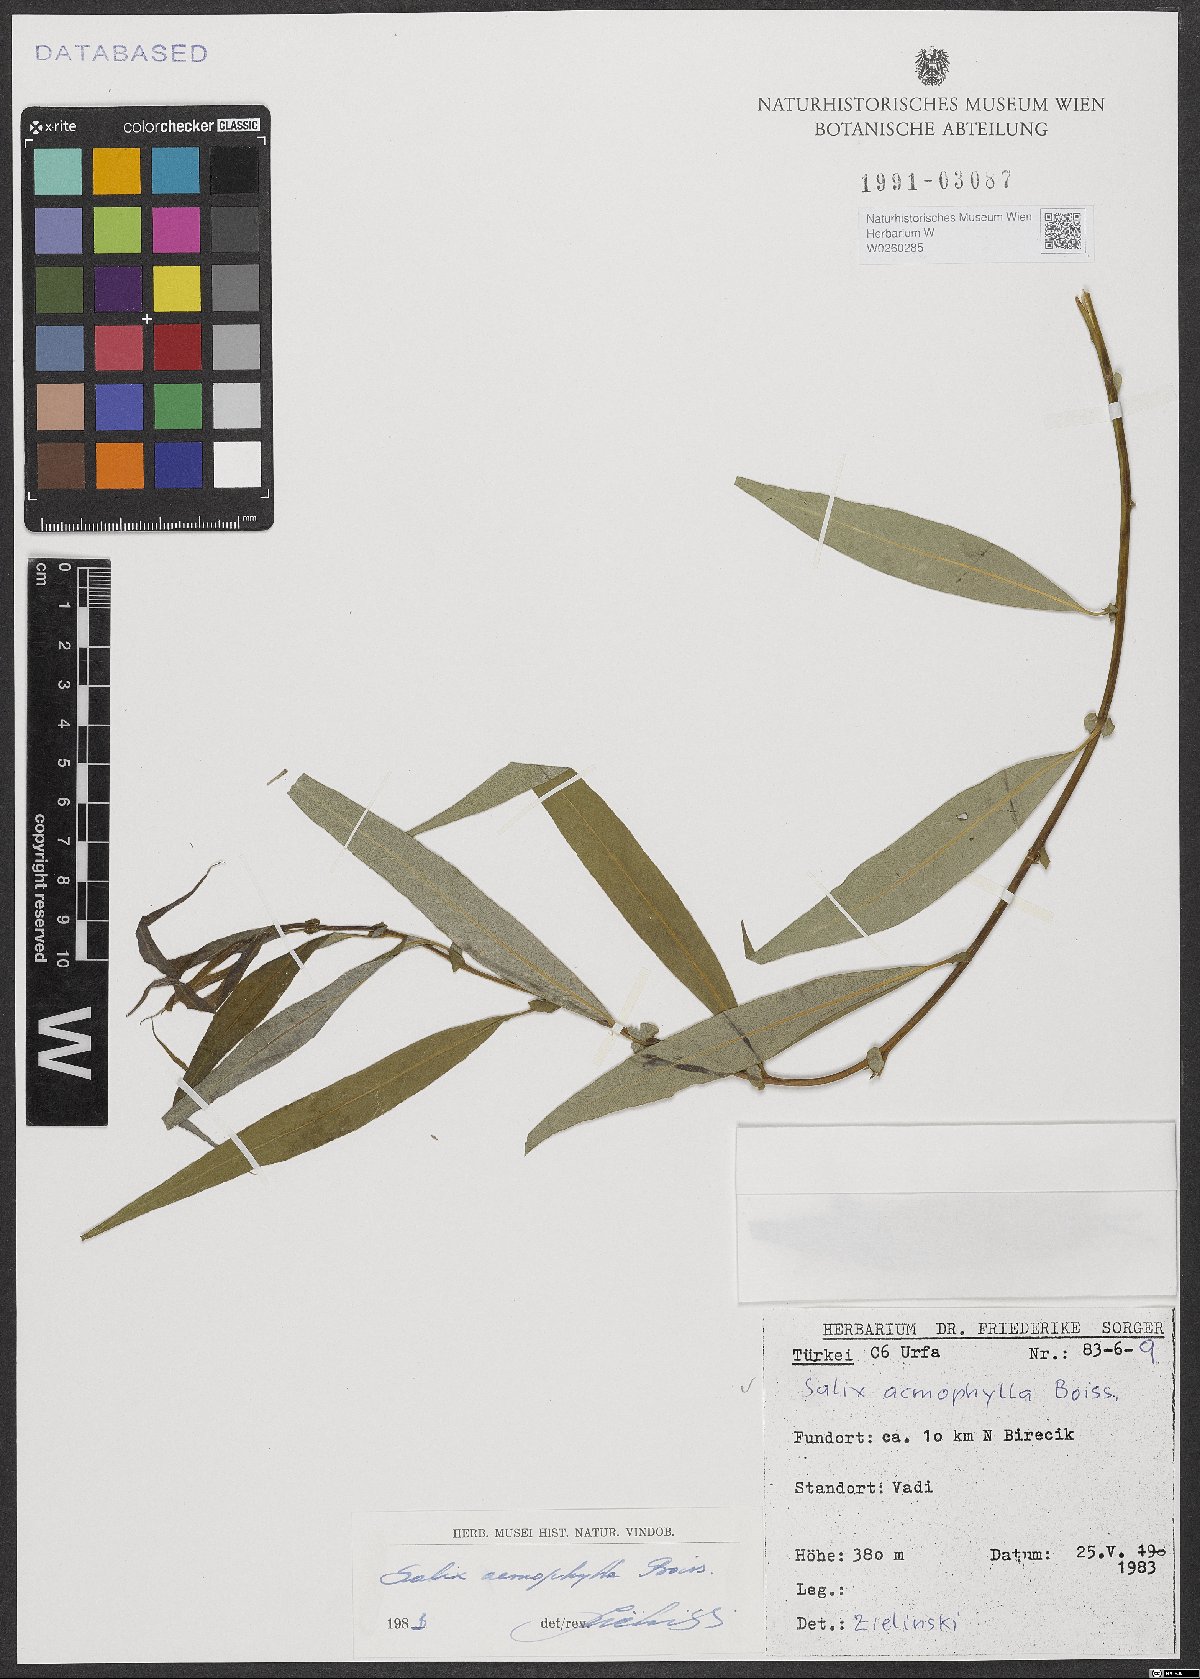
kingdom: Plantae
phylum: Tracheophyta
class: Magnoliopsida
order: Malpighiales
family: Salicaceae
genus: Salix
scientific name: Salix acmophylla
